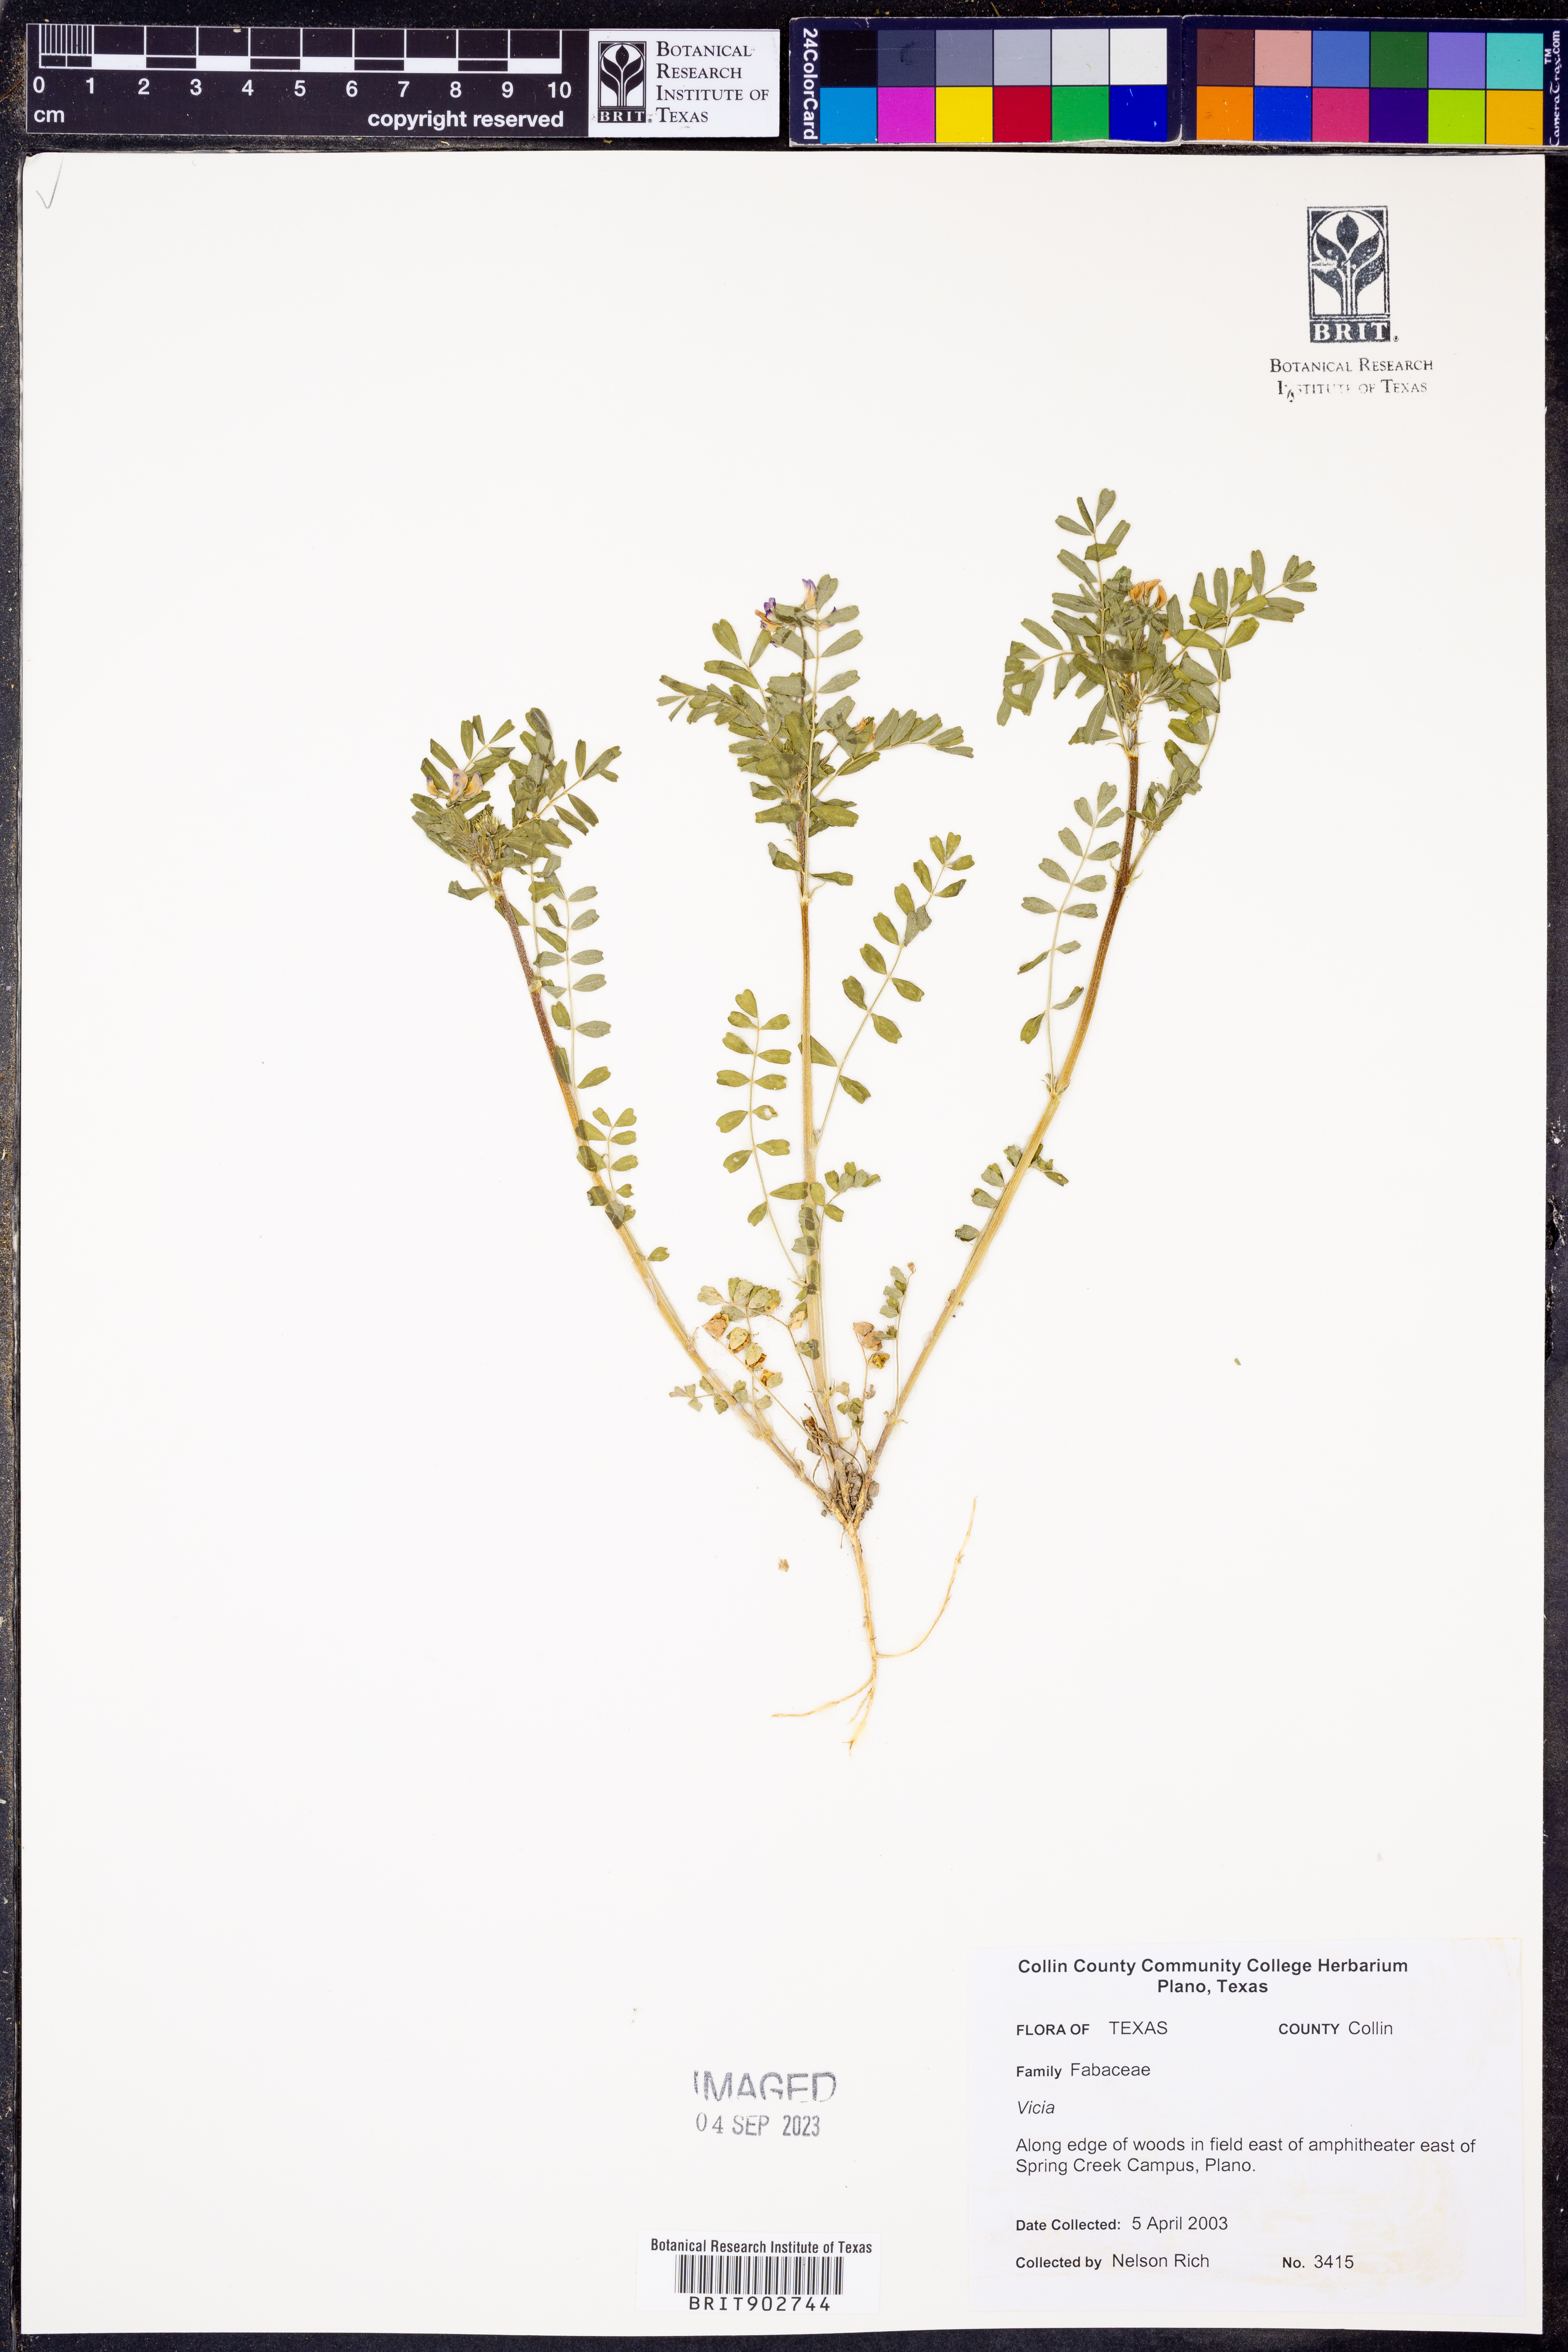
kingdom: Plantae
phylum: Tracheophyta
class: Magnoliopsida
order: Fabales
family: Fabaceae
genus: Vicia
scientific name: Vicia
